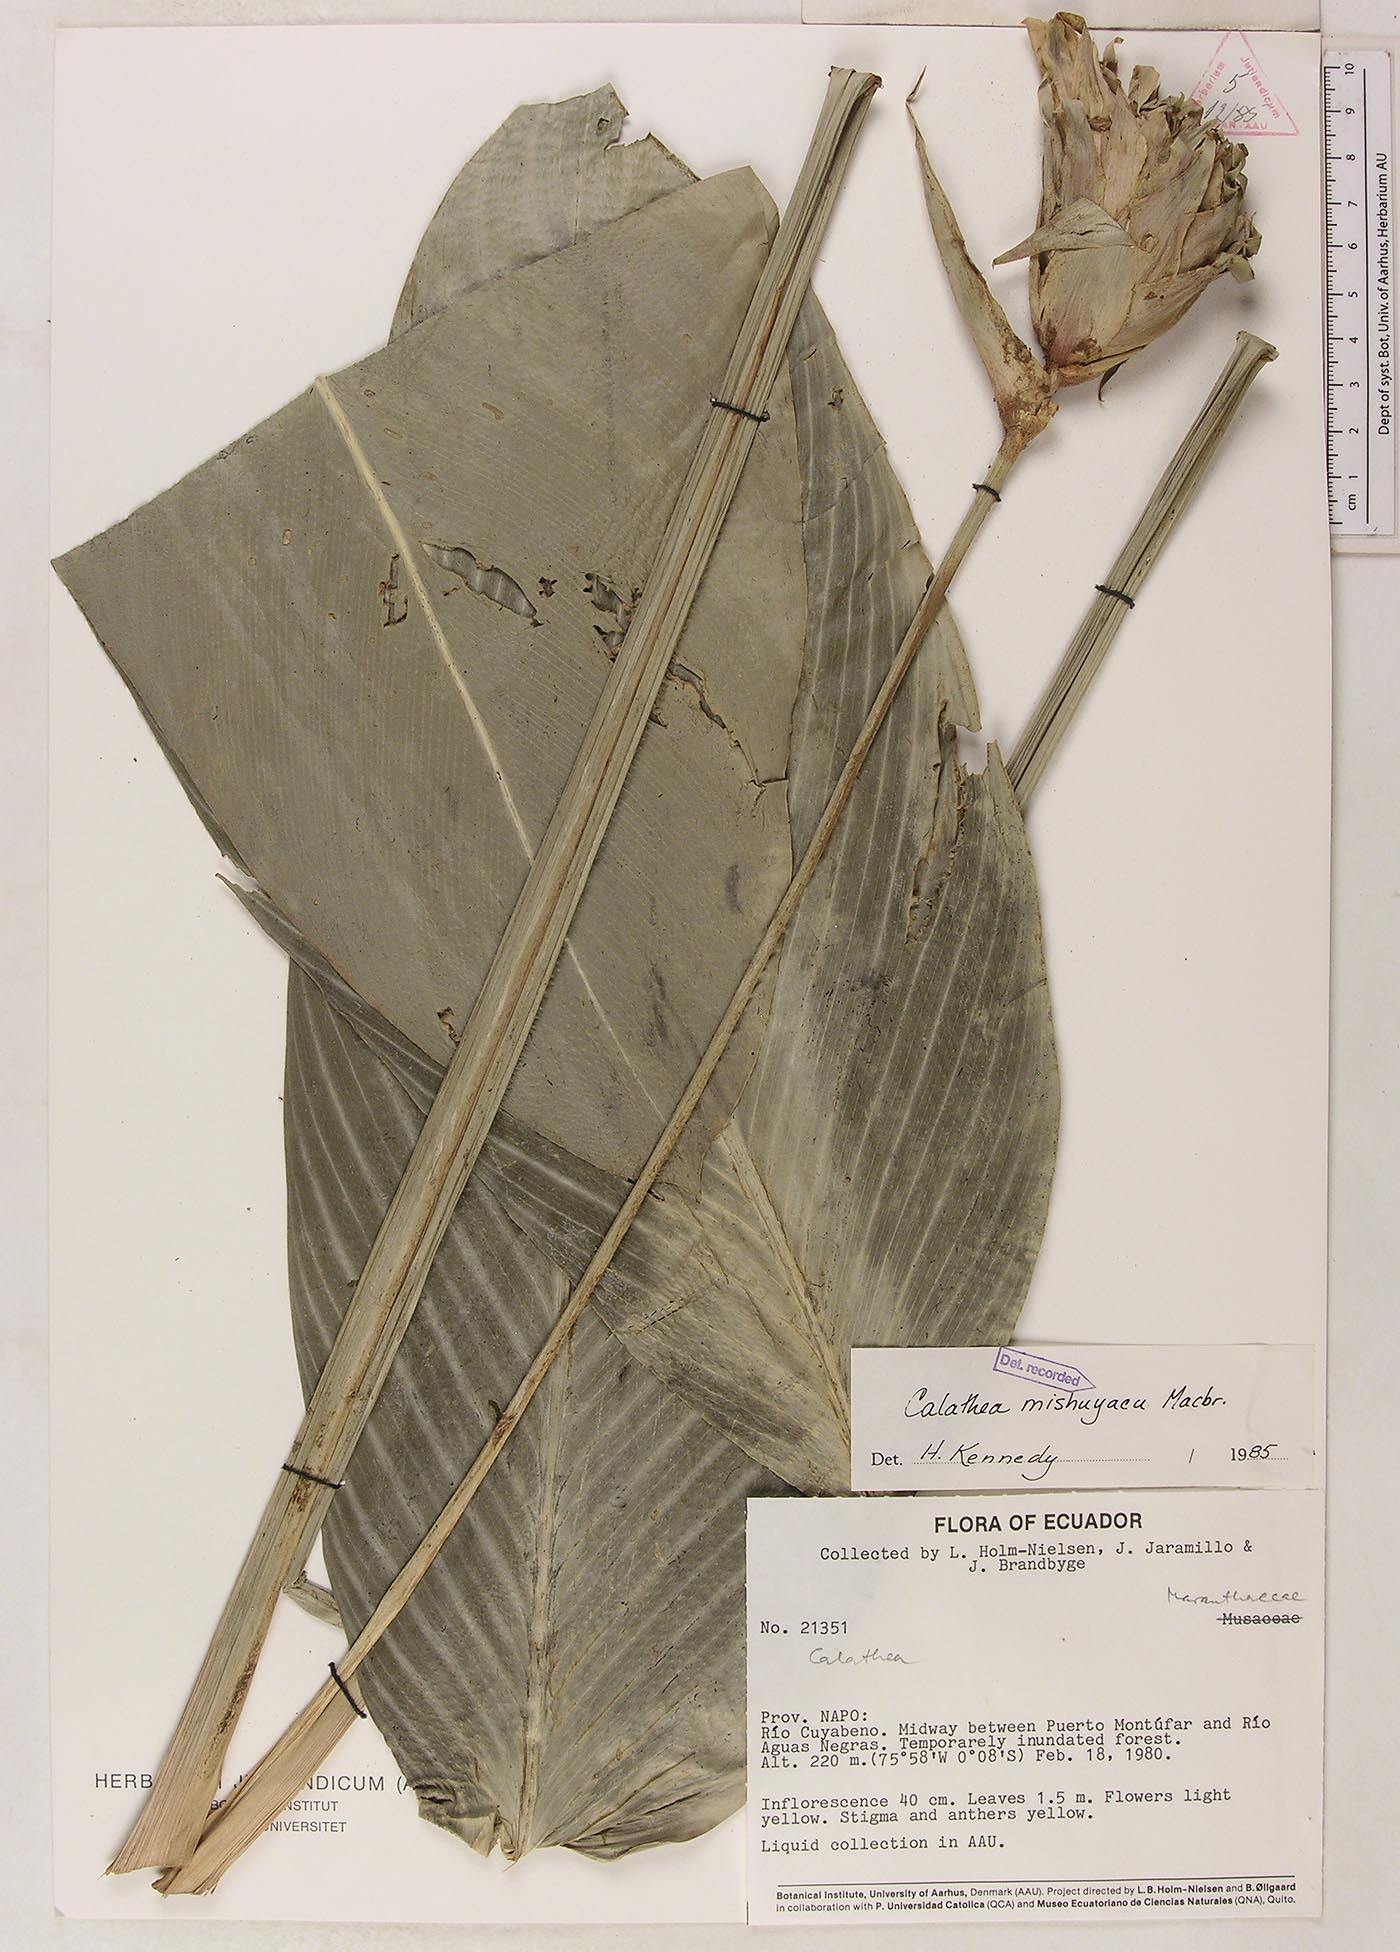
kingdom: Plantae
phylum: Tracheophyta
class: Liliopsida
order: Zingiberales
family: Marantaceae
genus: Goeppertia
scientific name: Goeppertia mishuyacu
